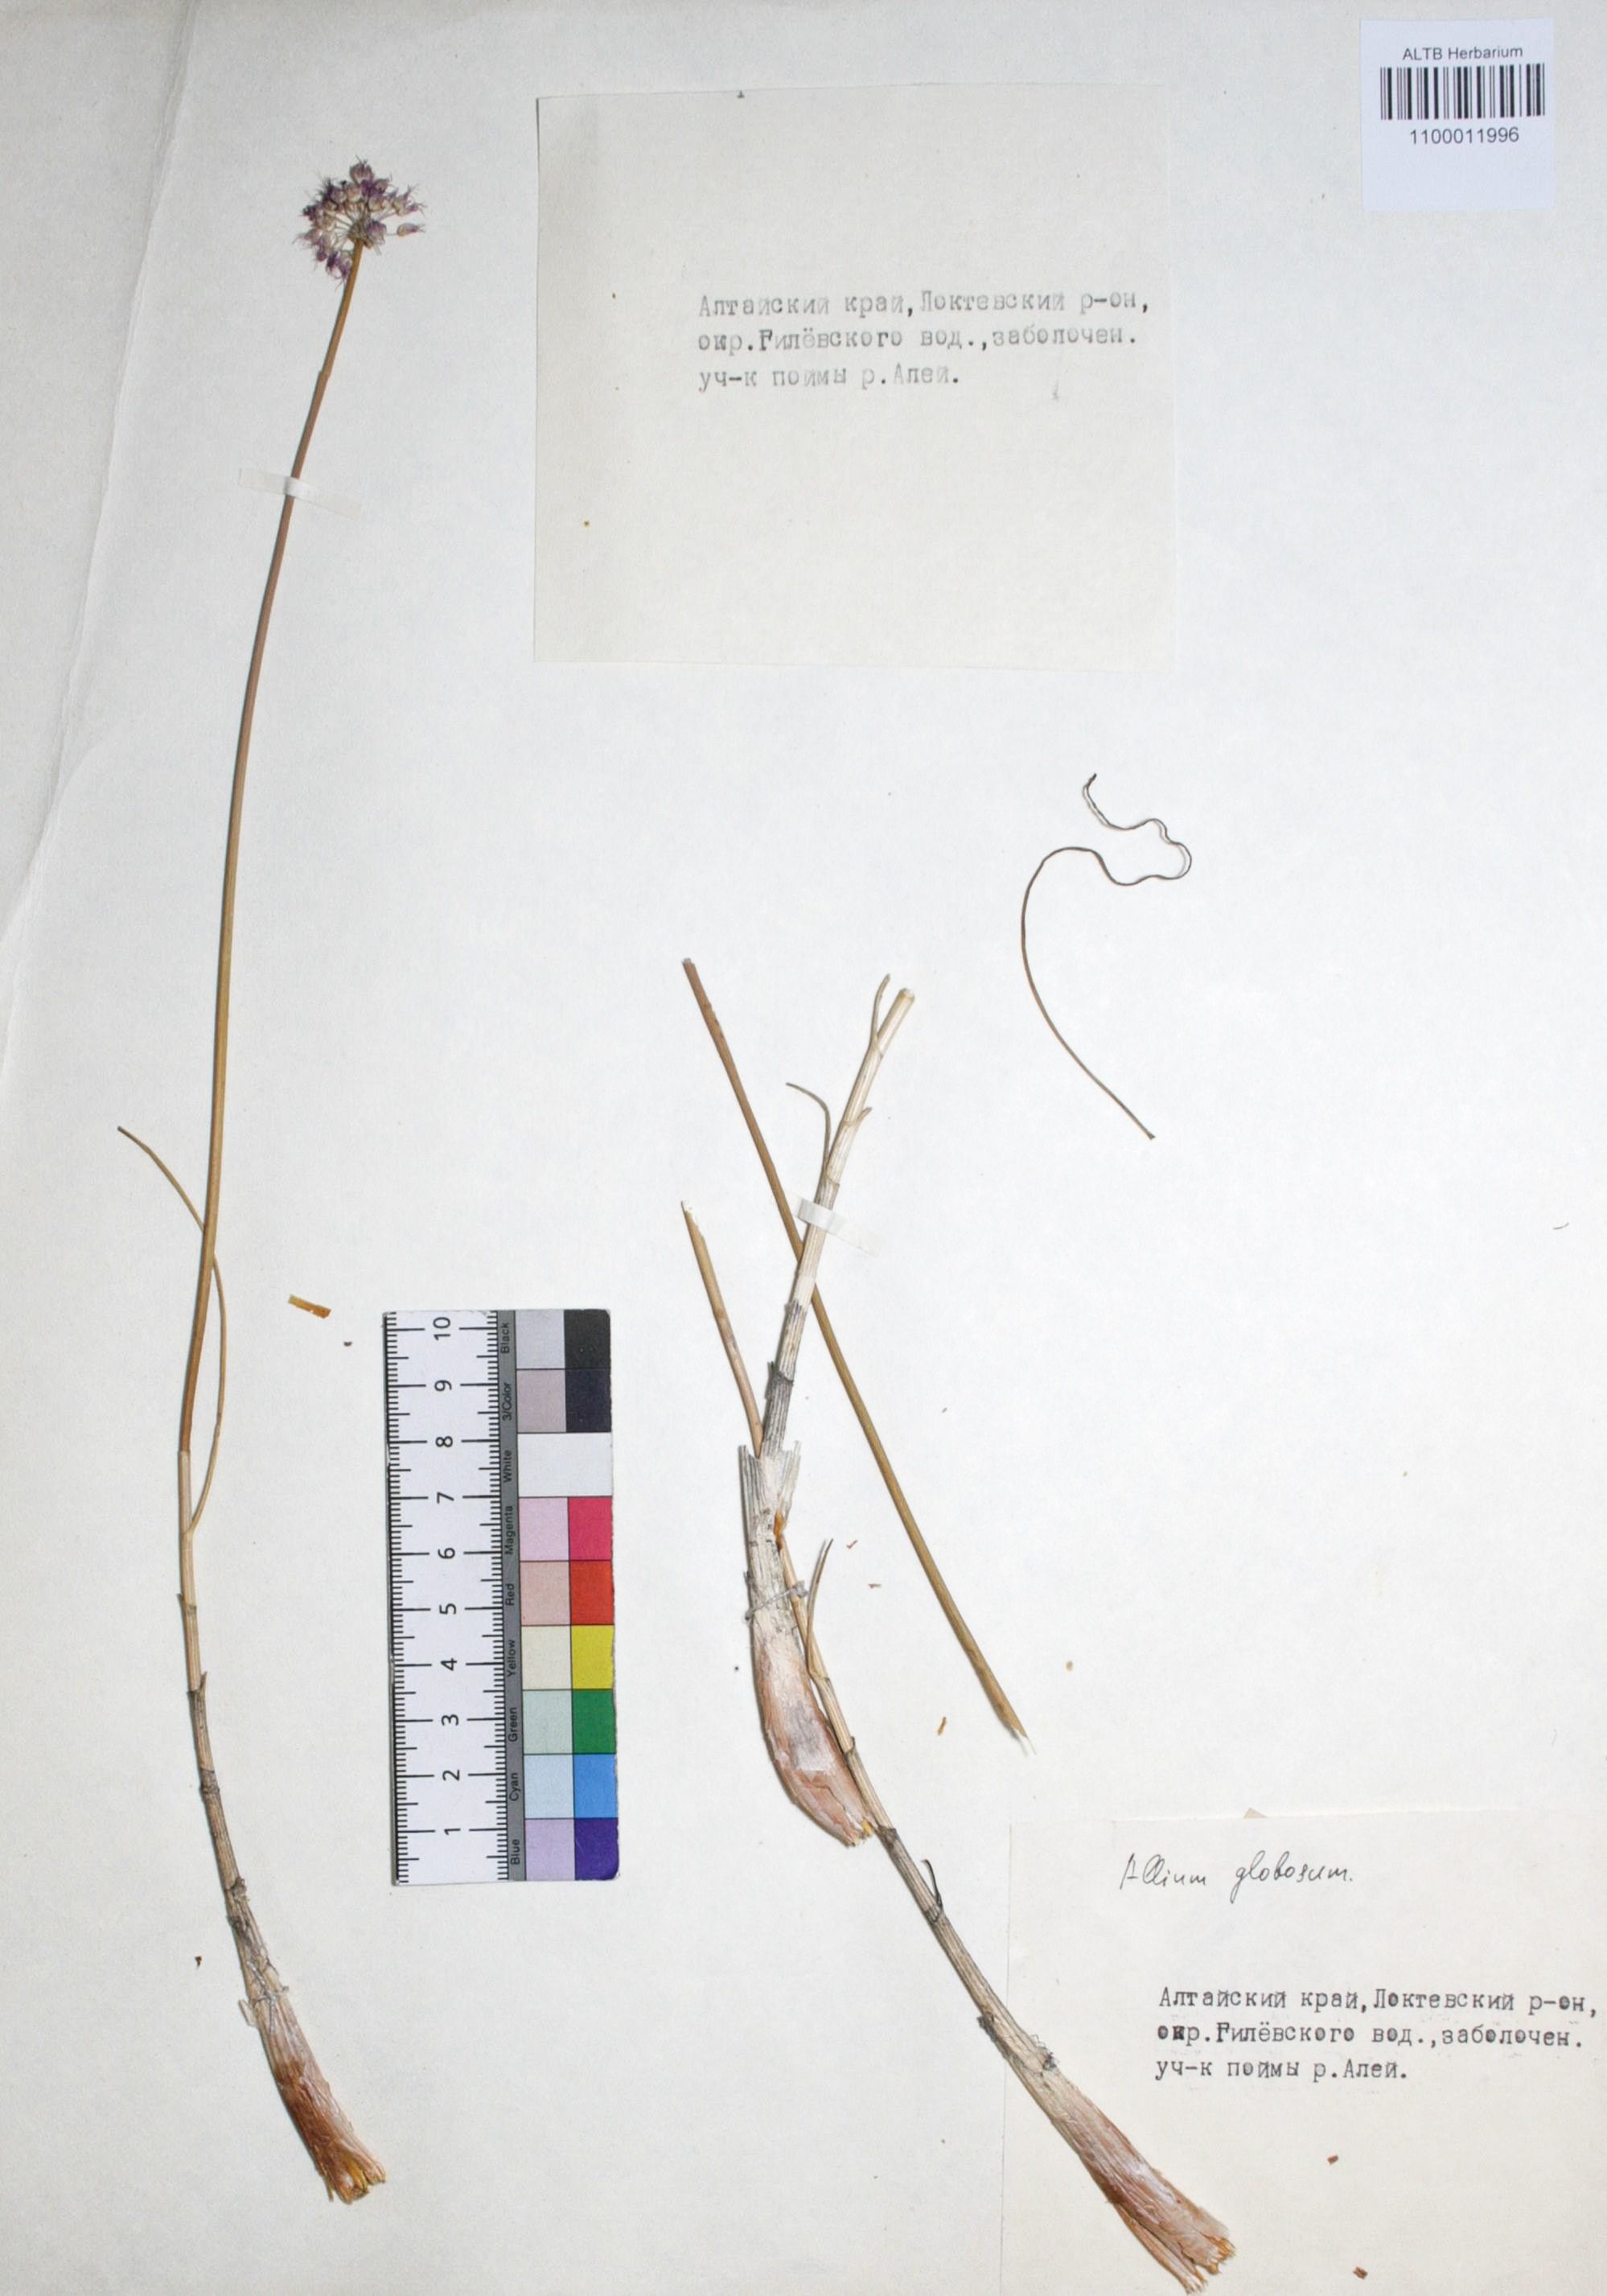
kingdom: Plantae
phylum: Tracheophyta
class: Liliopsida
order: Asparagales
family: Amaryllidaceae
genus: Allium
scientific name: Allium saxatile
